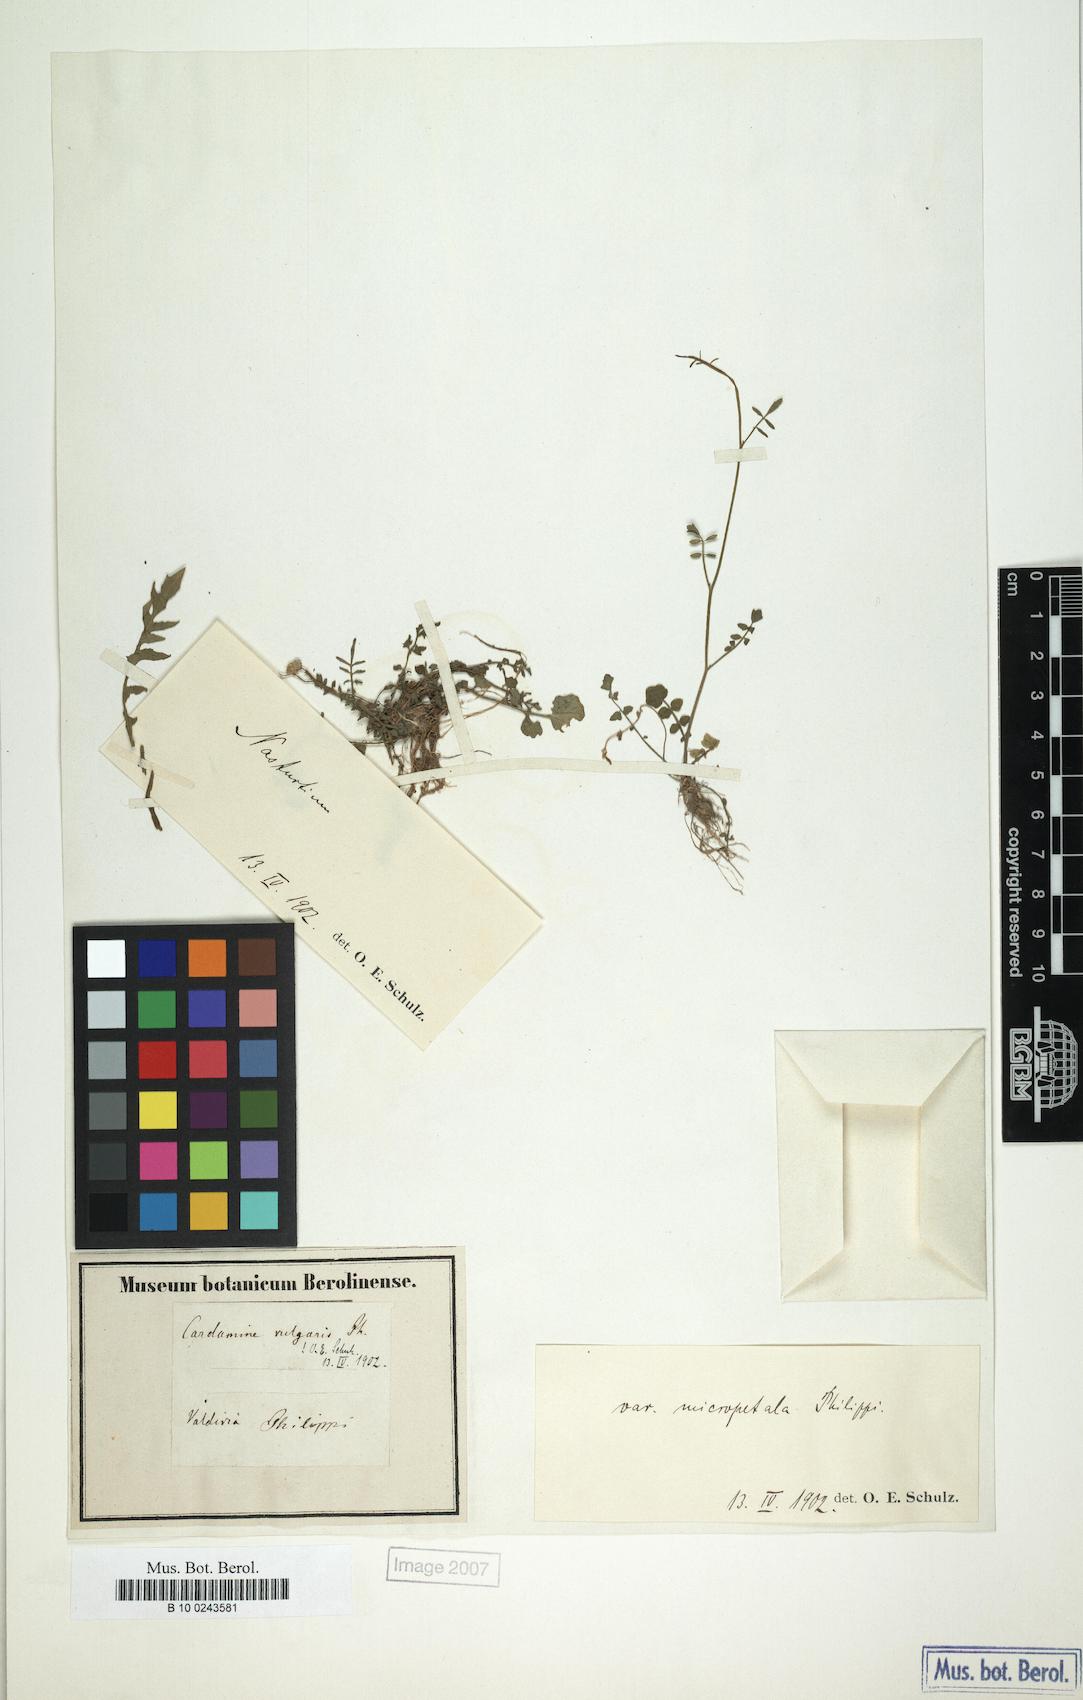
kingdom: Plantae
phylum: Tracheophyta
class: Magnoliopsida
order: Brassicales
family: Brassicaceae
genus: Cardamine
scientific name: Cardamine chilensis
